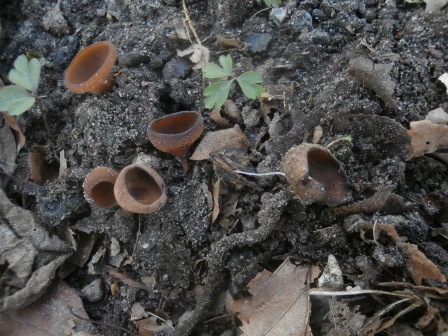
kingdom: Fungi
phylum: Ascomycota
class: Leotiomycetes
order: Helotiales
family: Sclerotiniaceae
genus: Dumontinia
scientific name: Dumontinia tuberosa
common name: anemone-knoldskive
